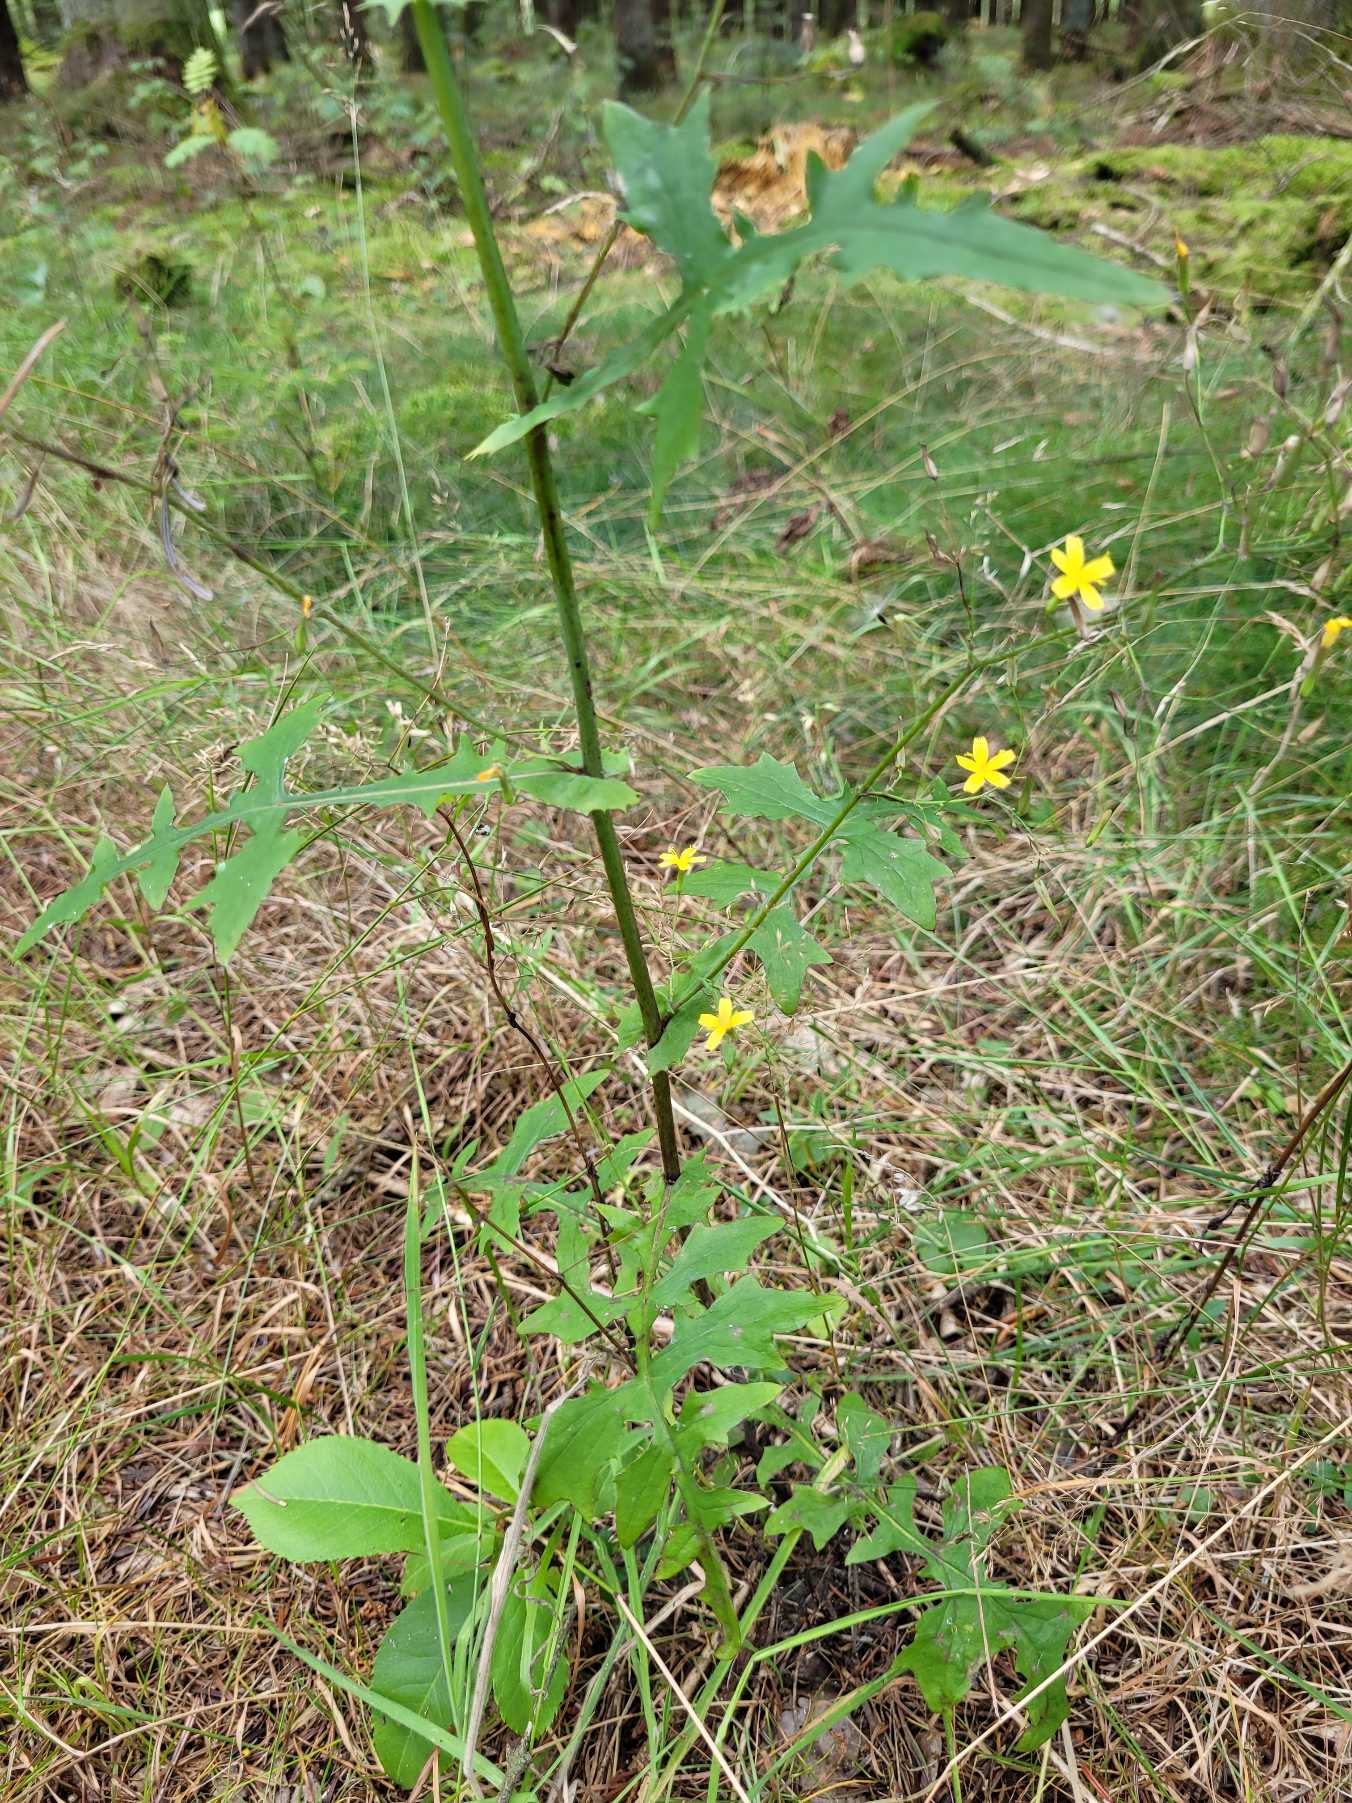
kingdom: Plantae
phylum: Tracheophyta
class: Magnoliopsida
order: Asterales
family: Asteraceae
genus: Mycelis
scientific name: Mycelis muralis
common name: Skov-salat
